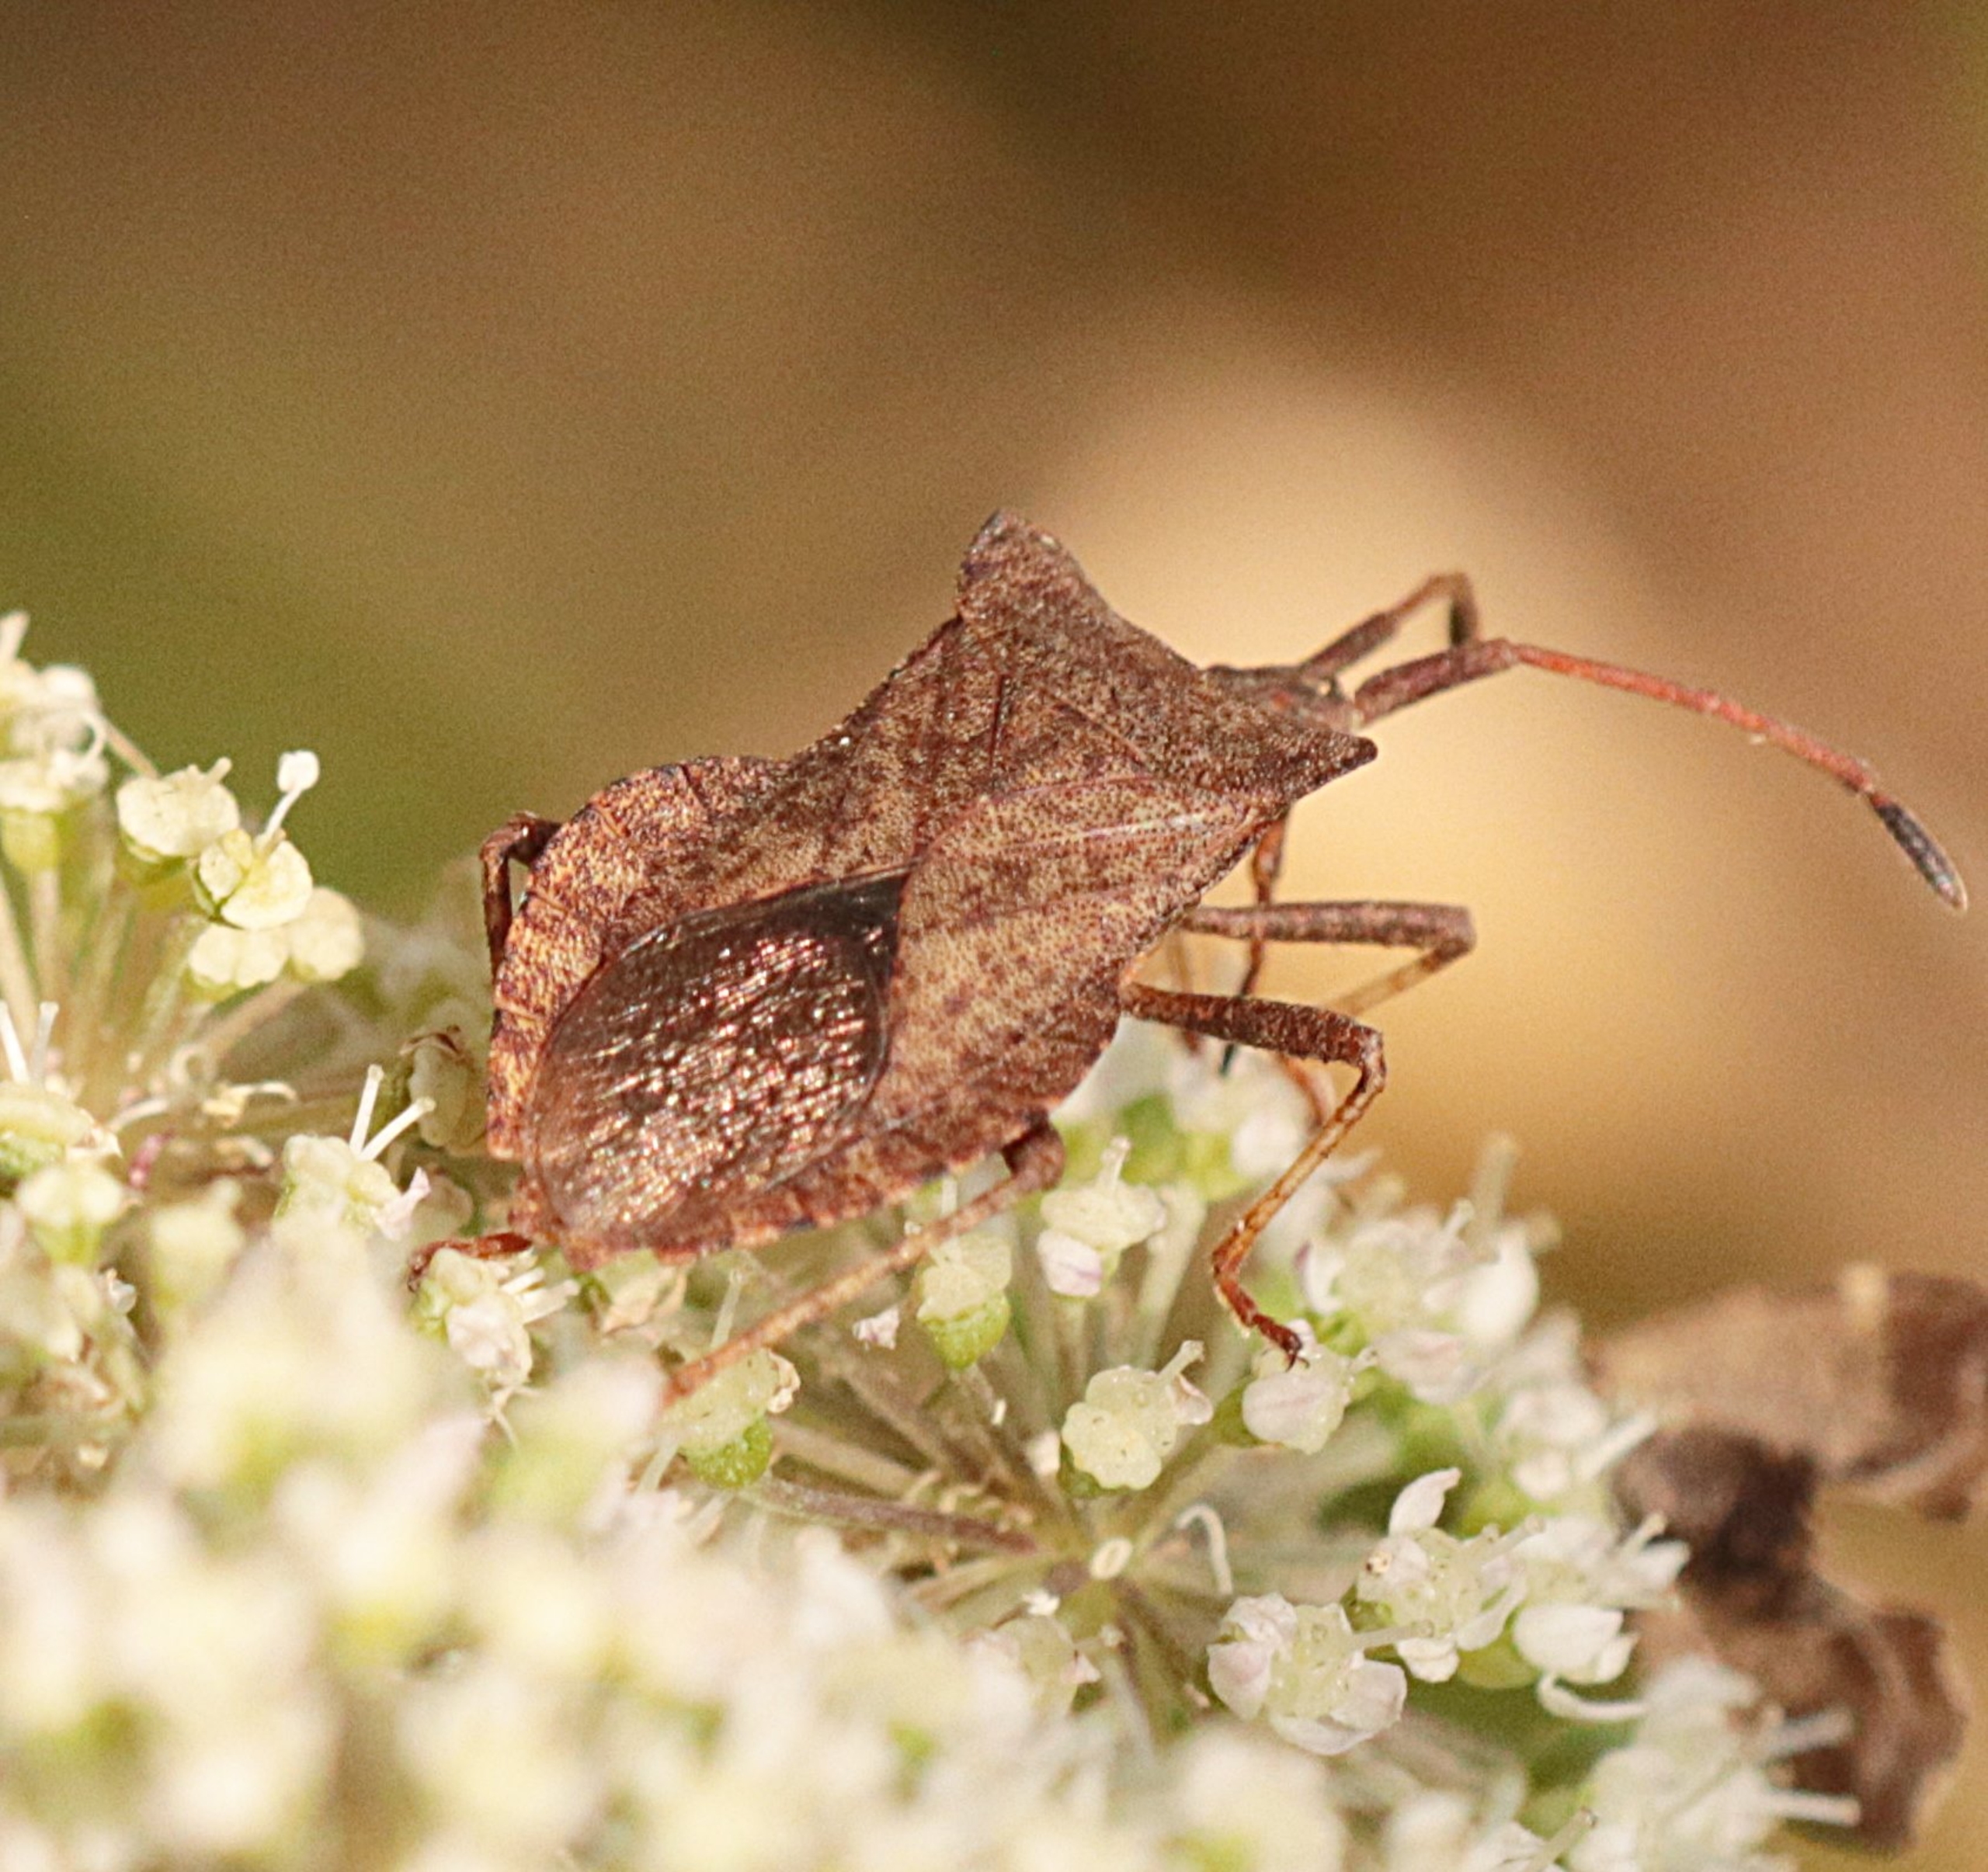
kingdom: Animalia
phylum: Arthropoda
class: Insecta
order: Hemiptera
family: Coreidae
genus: Coreus
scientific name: Coreus marginatus
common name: Skræppetæge
